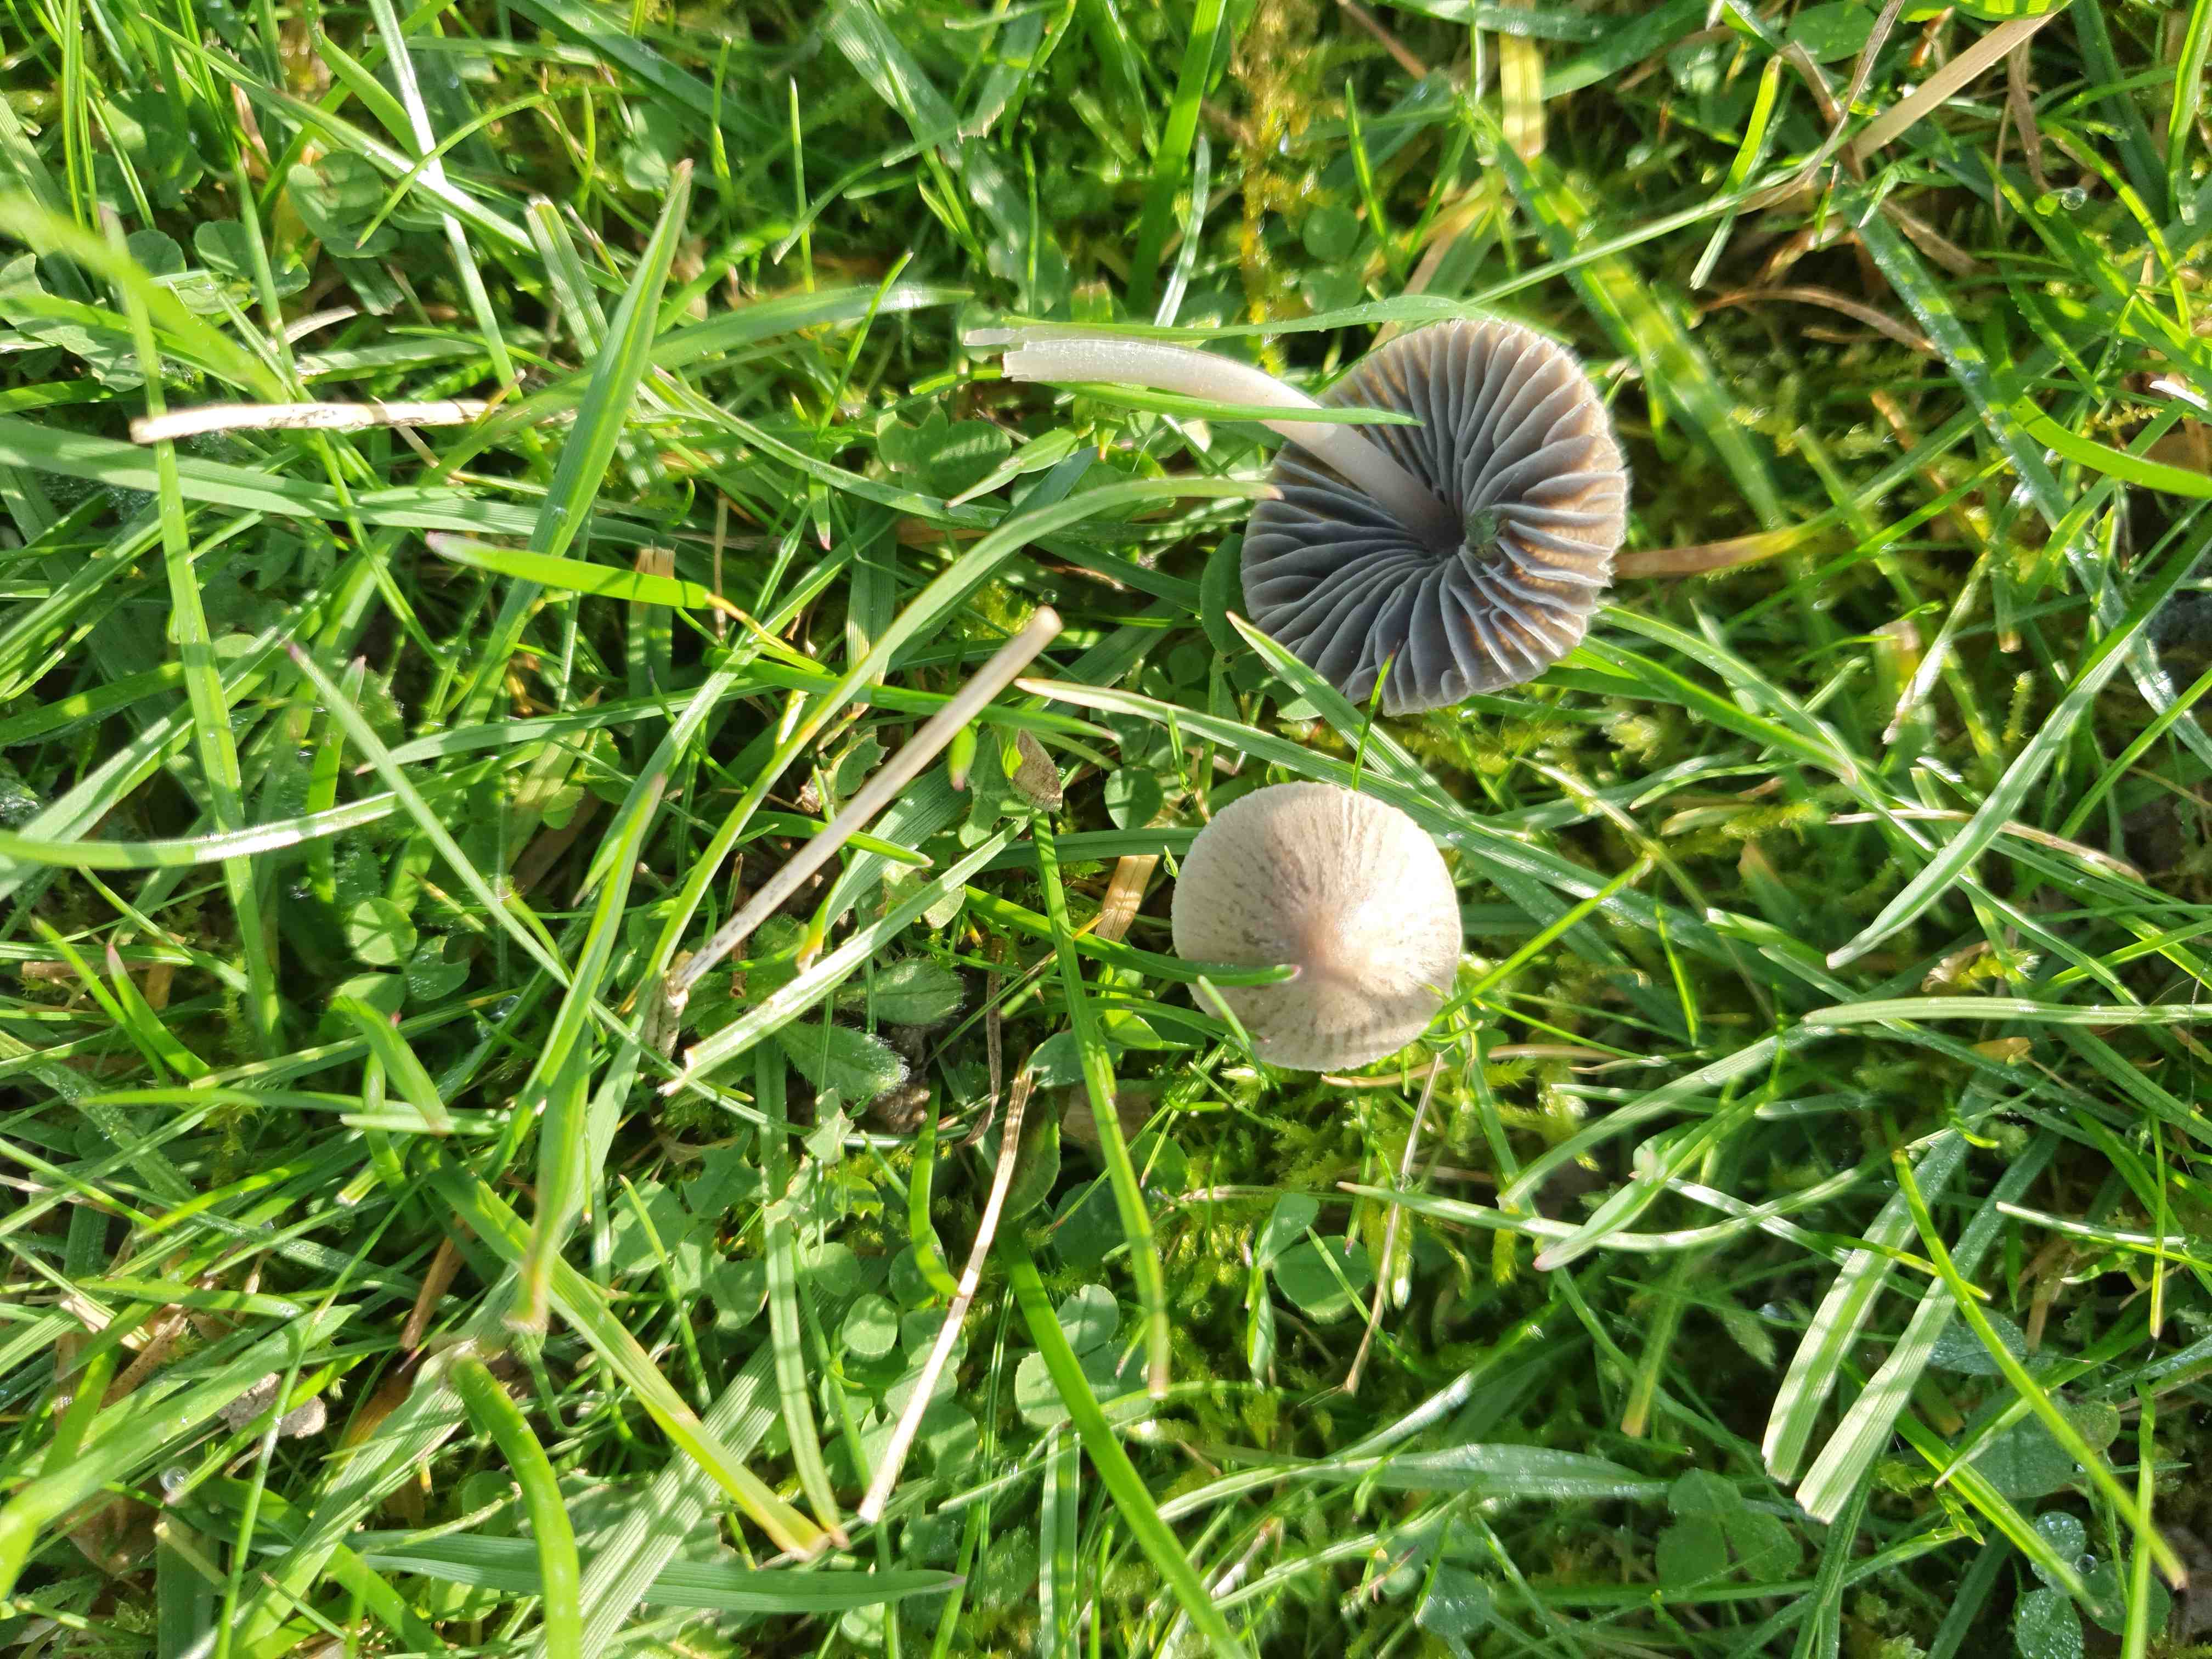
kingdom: Fungi
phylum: Basidiomycota
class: Agaricomycetes
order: Agaricales
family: Mycenaceae
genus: Mycena
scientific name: Mycena aetites
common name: plæne-huesvamp
